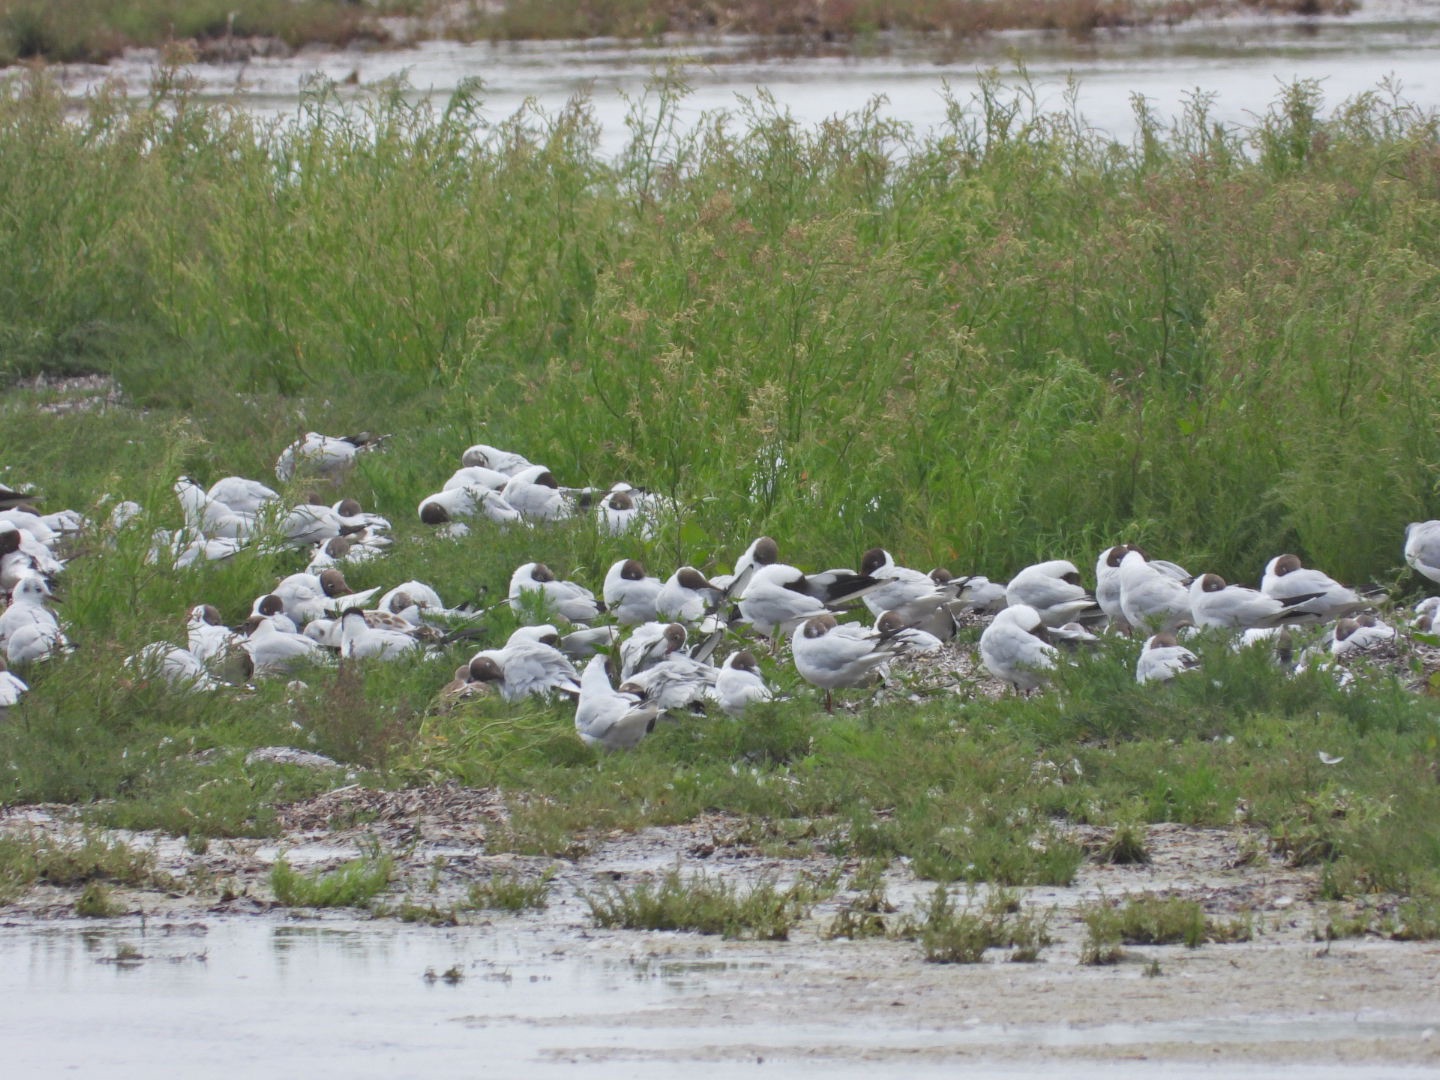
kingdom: Animalia
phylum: Chordata
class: Aves
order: Charadriiformes
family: Laridae
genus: Chroicocephalus
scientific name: Chroicocephalus ridibundus
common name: Hættemåge
